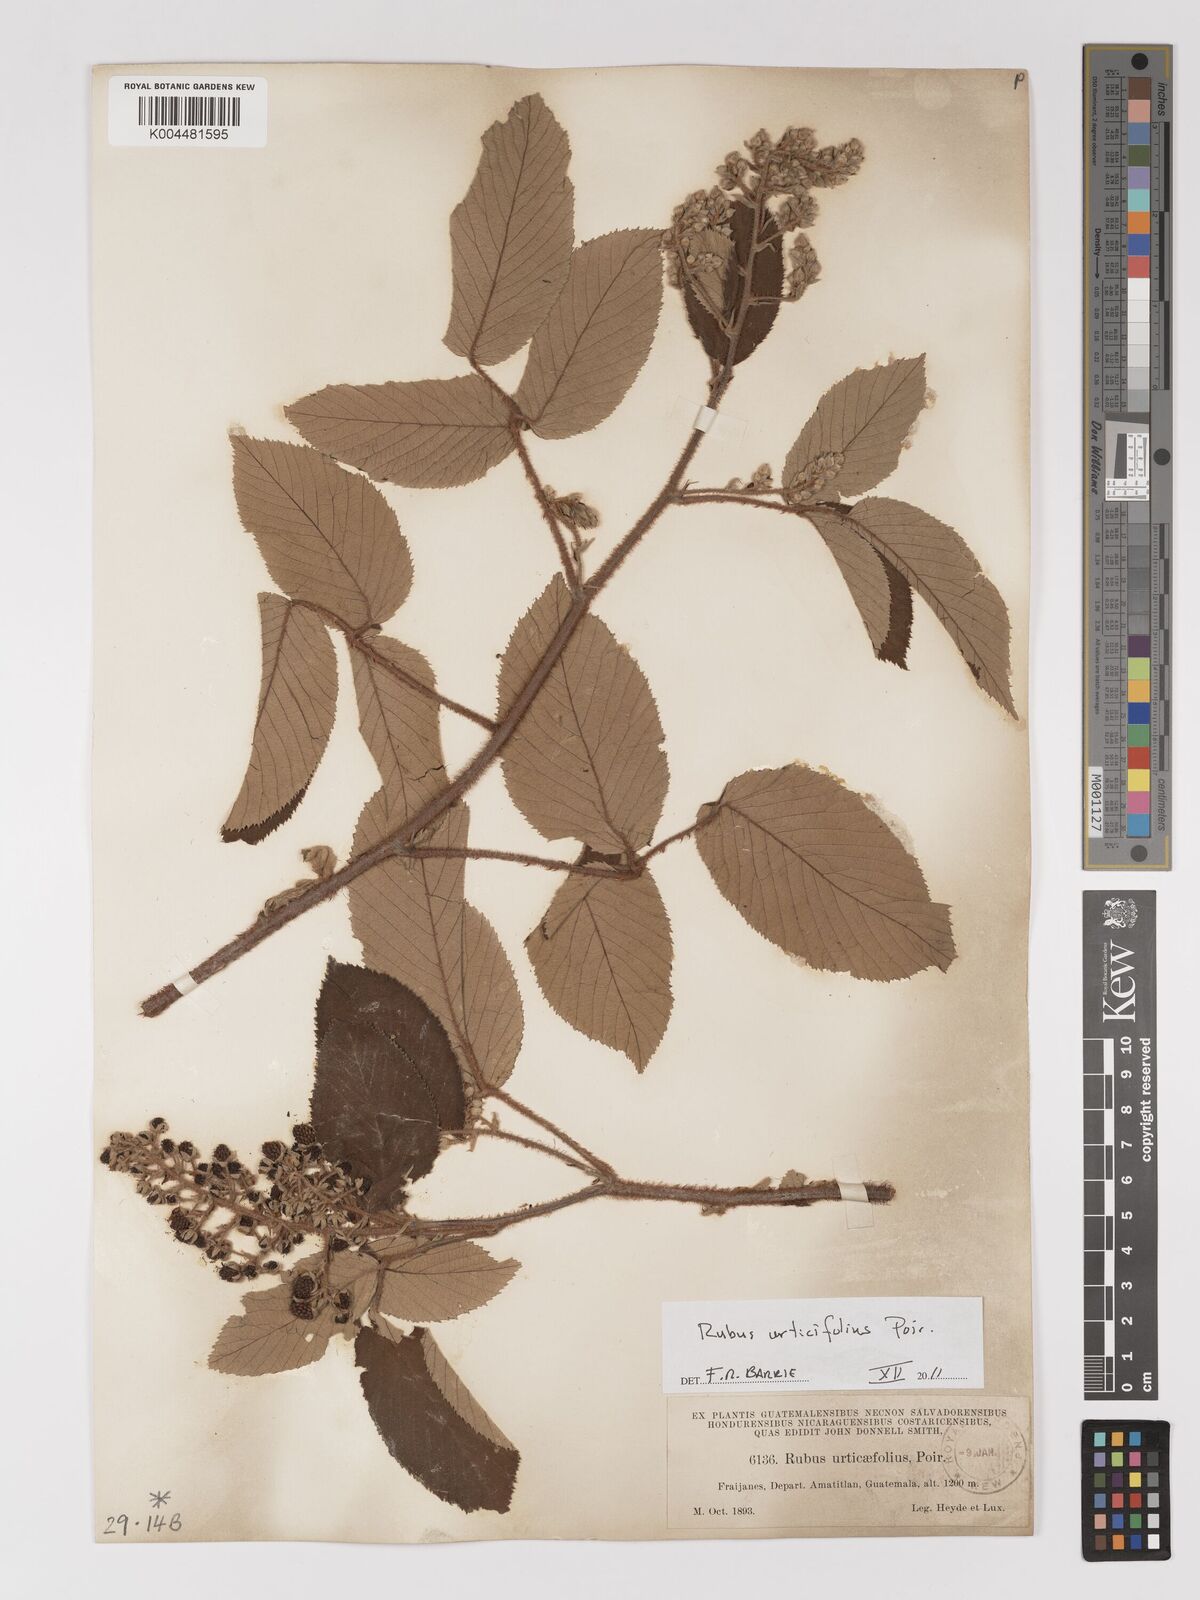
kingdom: Plantae
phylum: Tracheophyta
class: Magnoliopsida
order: Rosales
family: Rosaceae
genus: Rubus
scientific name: Rubus urticifolius
